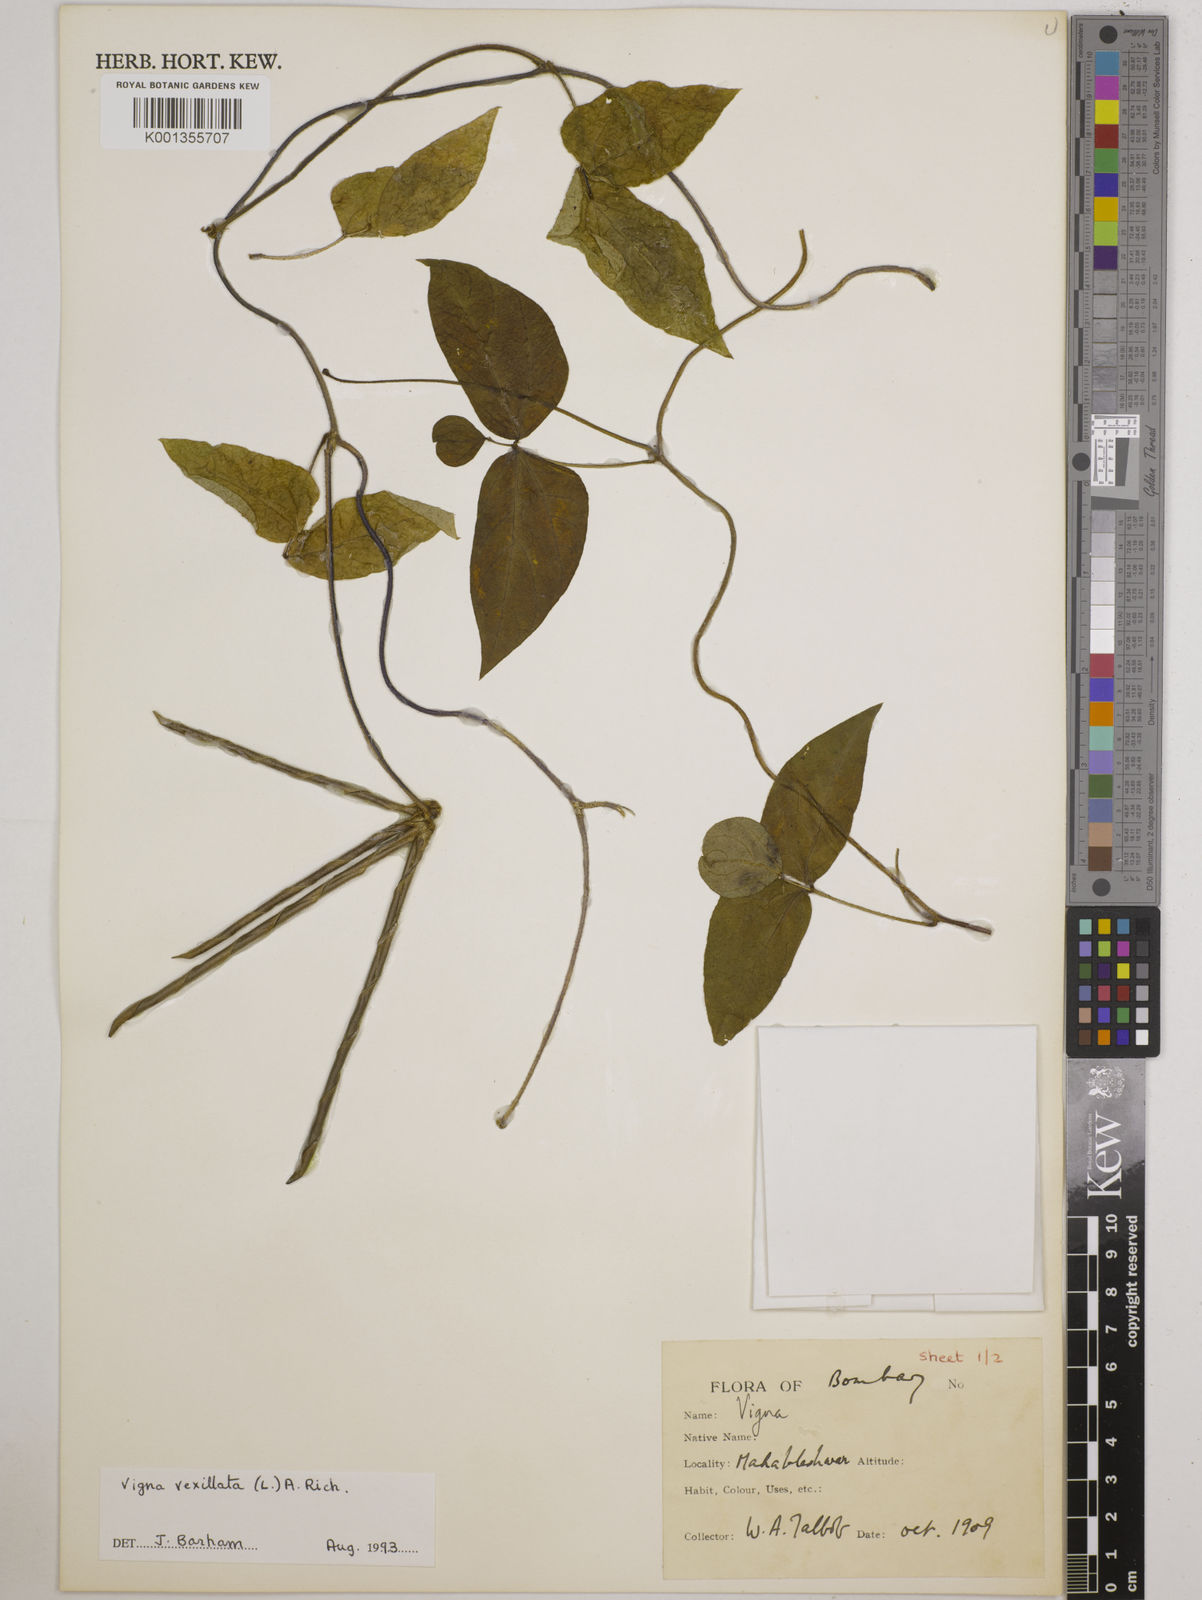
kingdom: Plantae
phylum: Tracheophyta
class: Magnoliopsida
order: Fabales
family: Fabaceae
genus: Vigna
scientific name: Vigna vexillata
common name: Zombi pea
